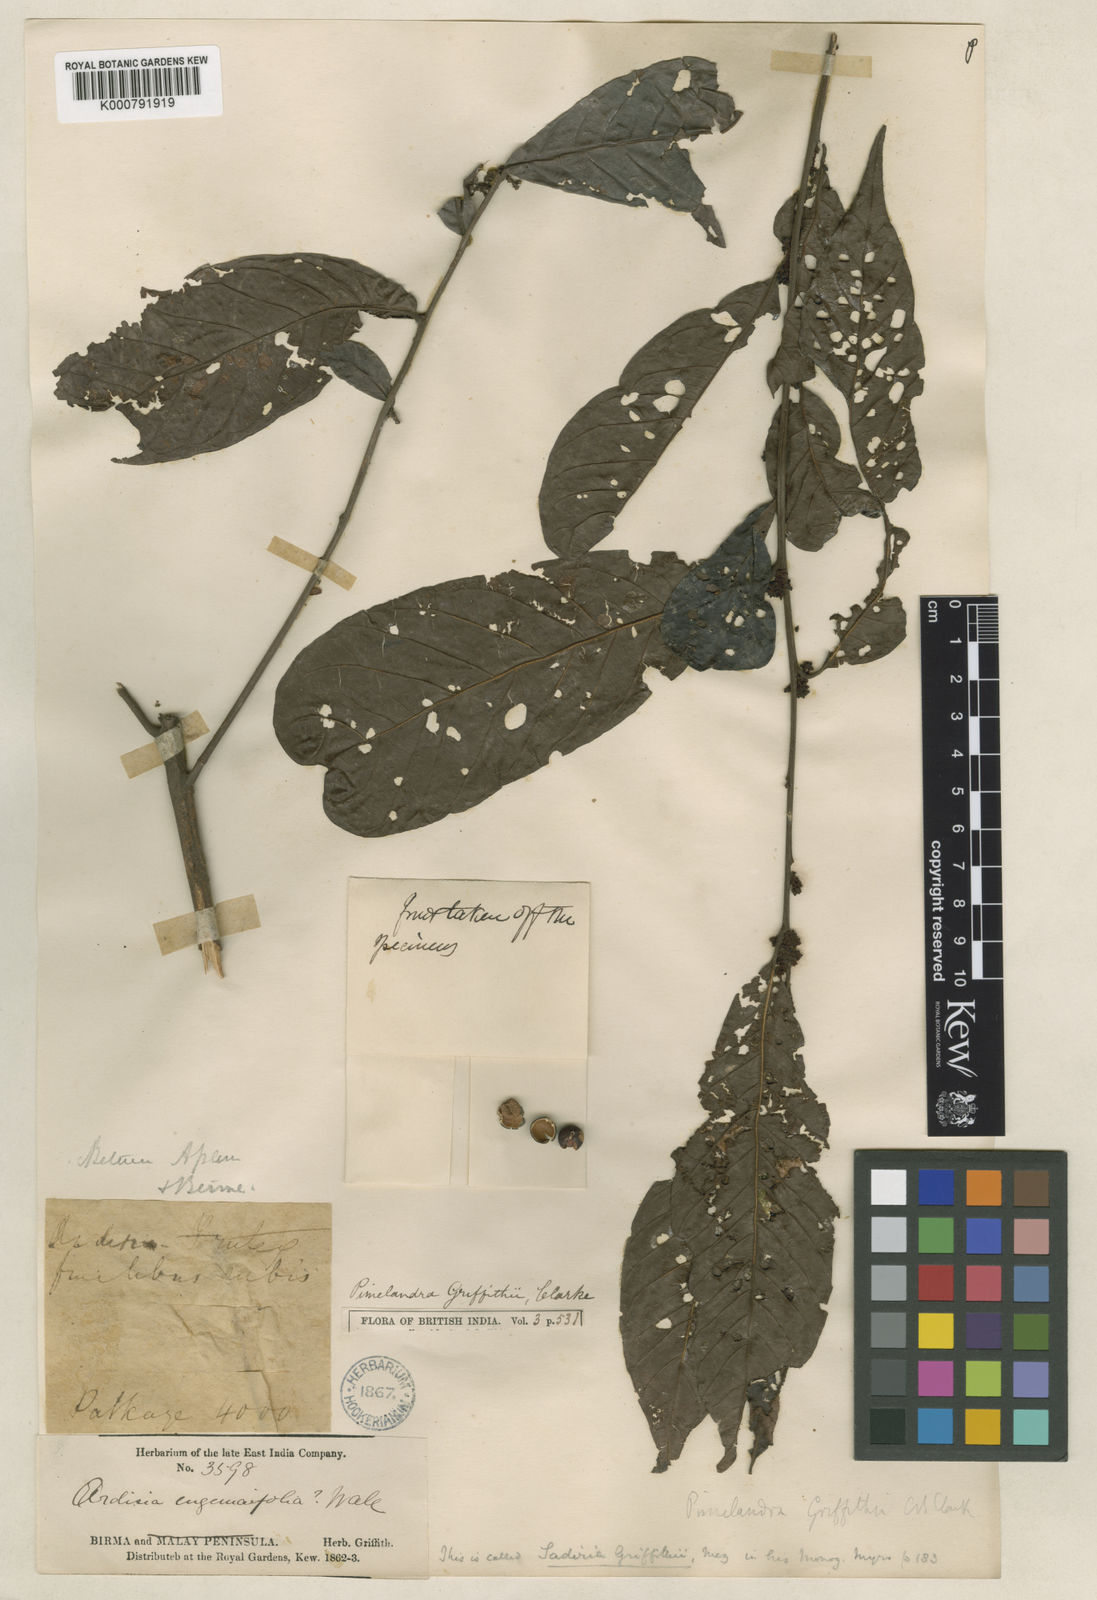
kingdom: Plantae
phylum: Tracheophyta
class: Magnoliopsida
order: Ericales
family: Primulaceae
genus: Sadiria
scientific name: Sadiria griffithii
